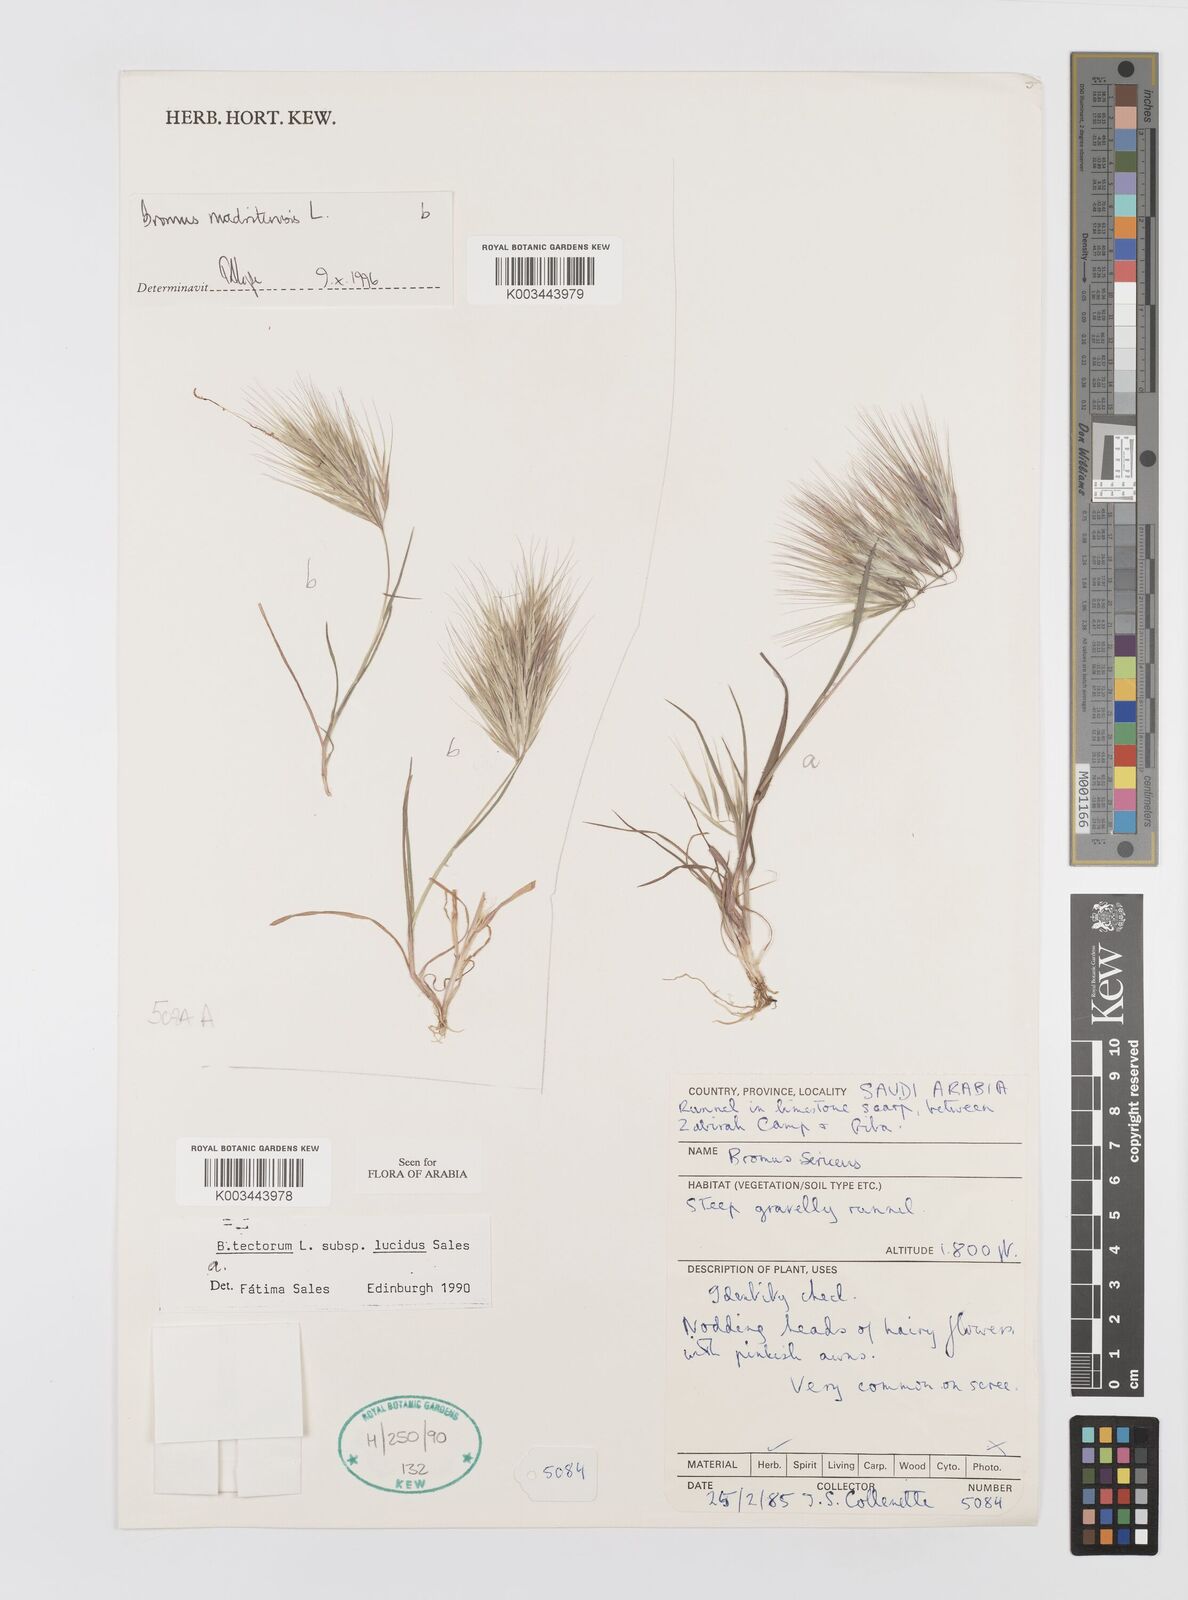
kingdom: Plantae
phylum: Tracheophyta
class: Liliopsida
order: Poales
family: Poaceae
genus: Bromus
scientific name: Bromus moeszii
